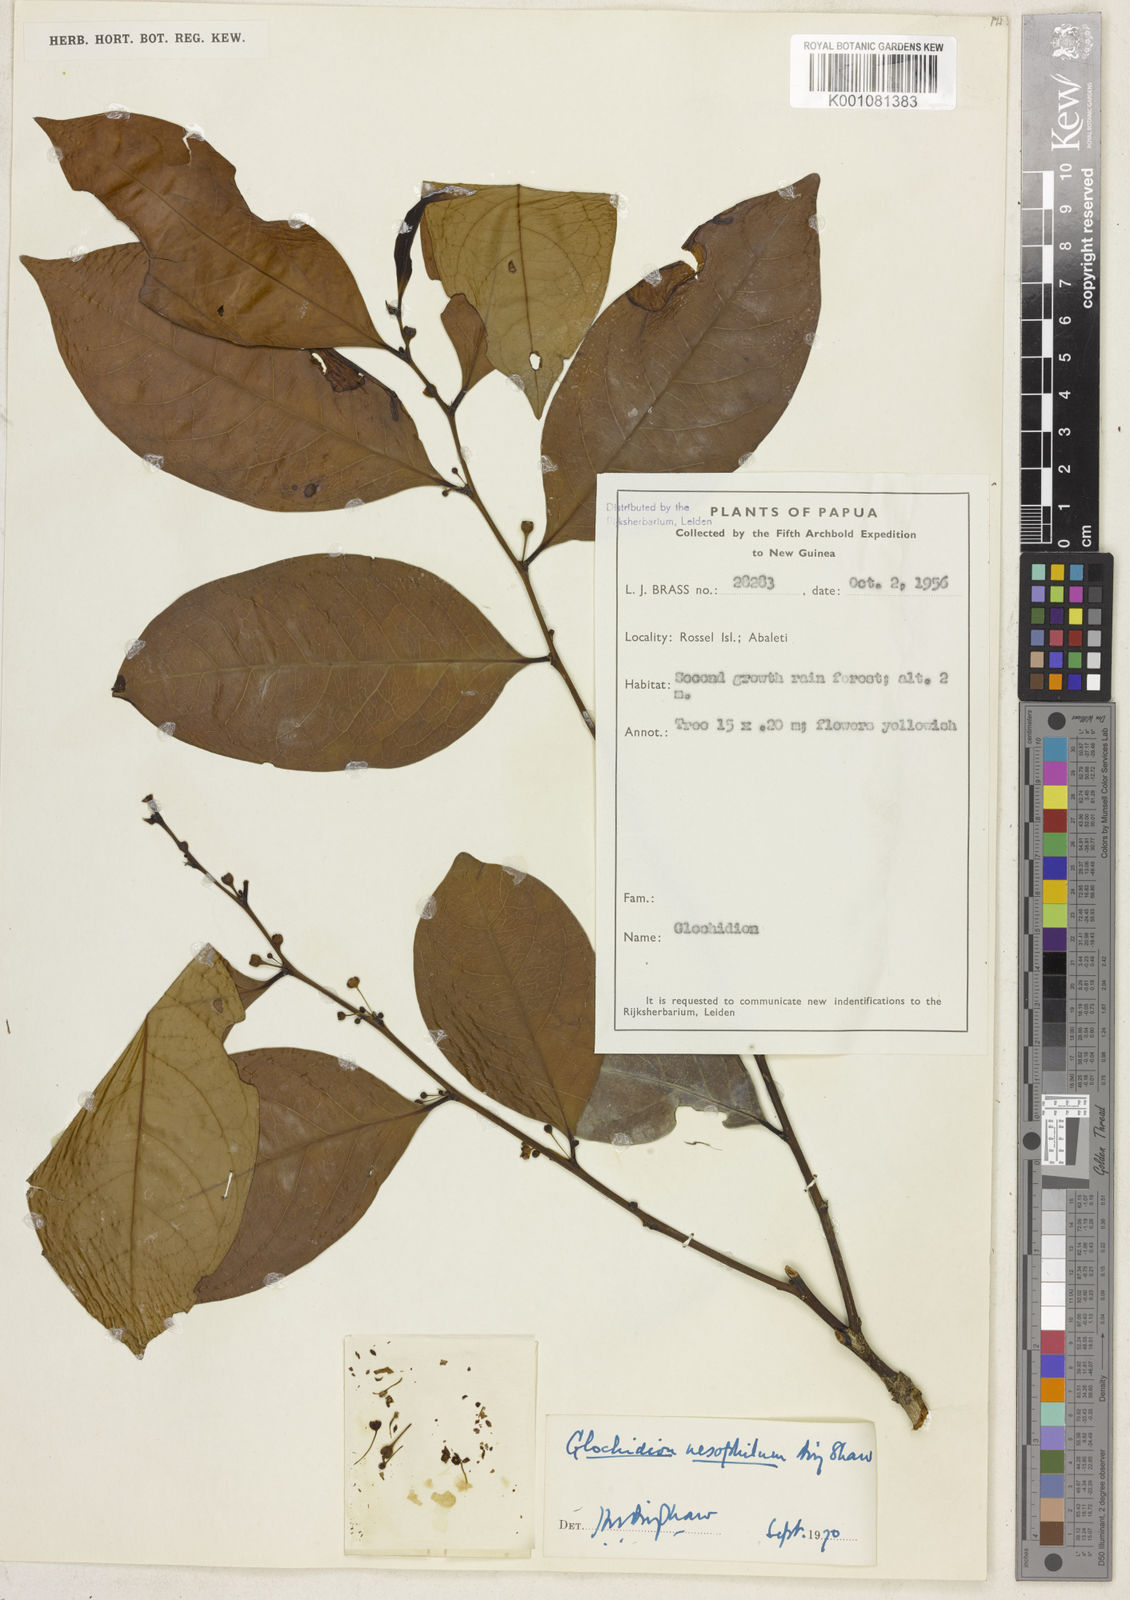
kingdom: Plantae
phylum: Tracheophyta
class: Magnoliopsida
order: Malpighiales
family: Phyllanthaceae
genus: Glochidion
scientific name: Glochidion nesophilum
